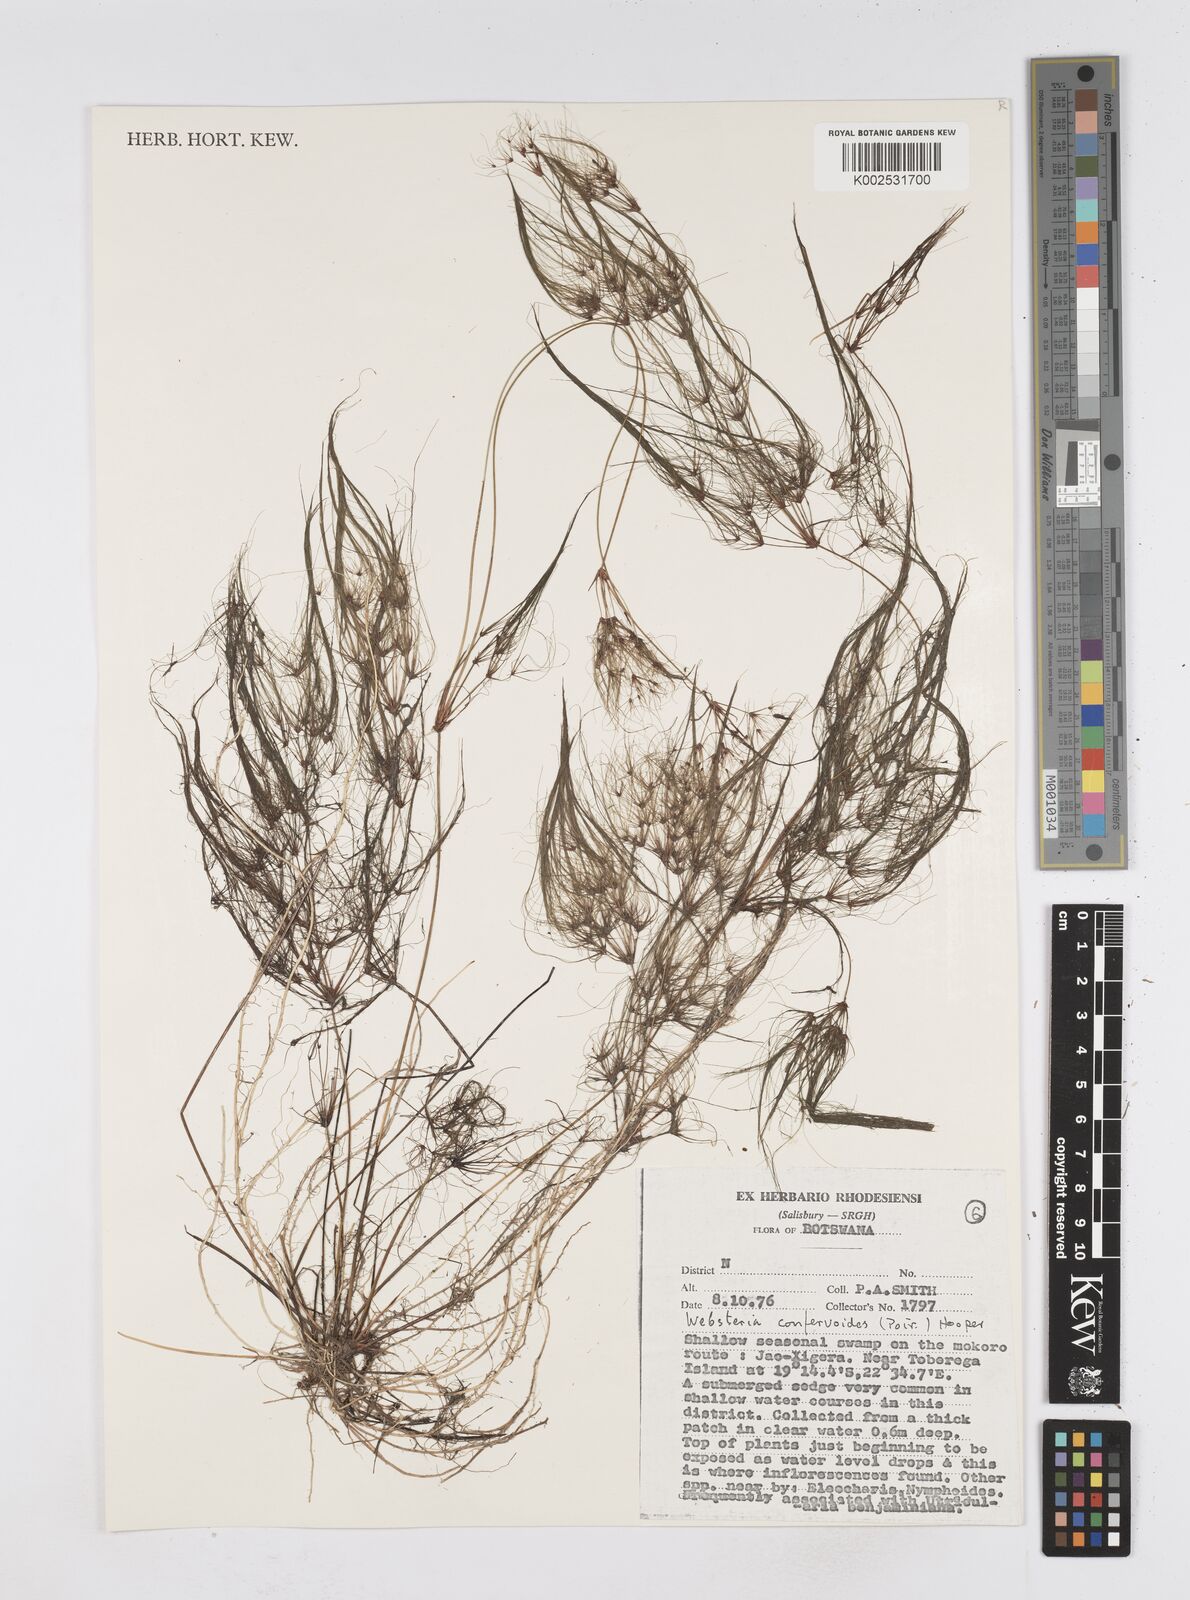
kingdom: Plantae
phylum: Tracheophyta
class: Liliopsida
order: Poales
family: Cyperaceae
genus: Eleocharis
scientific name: Eleocharis confervoides
